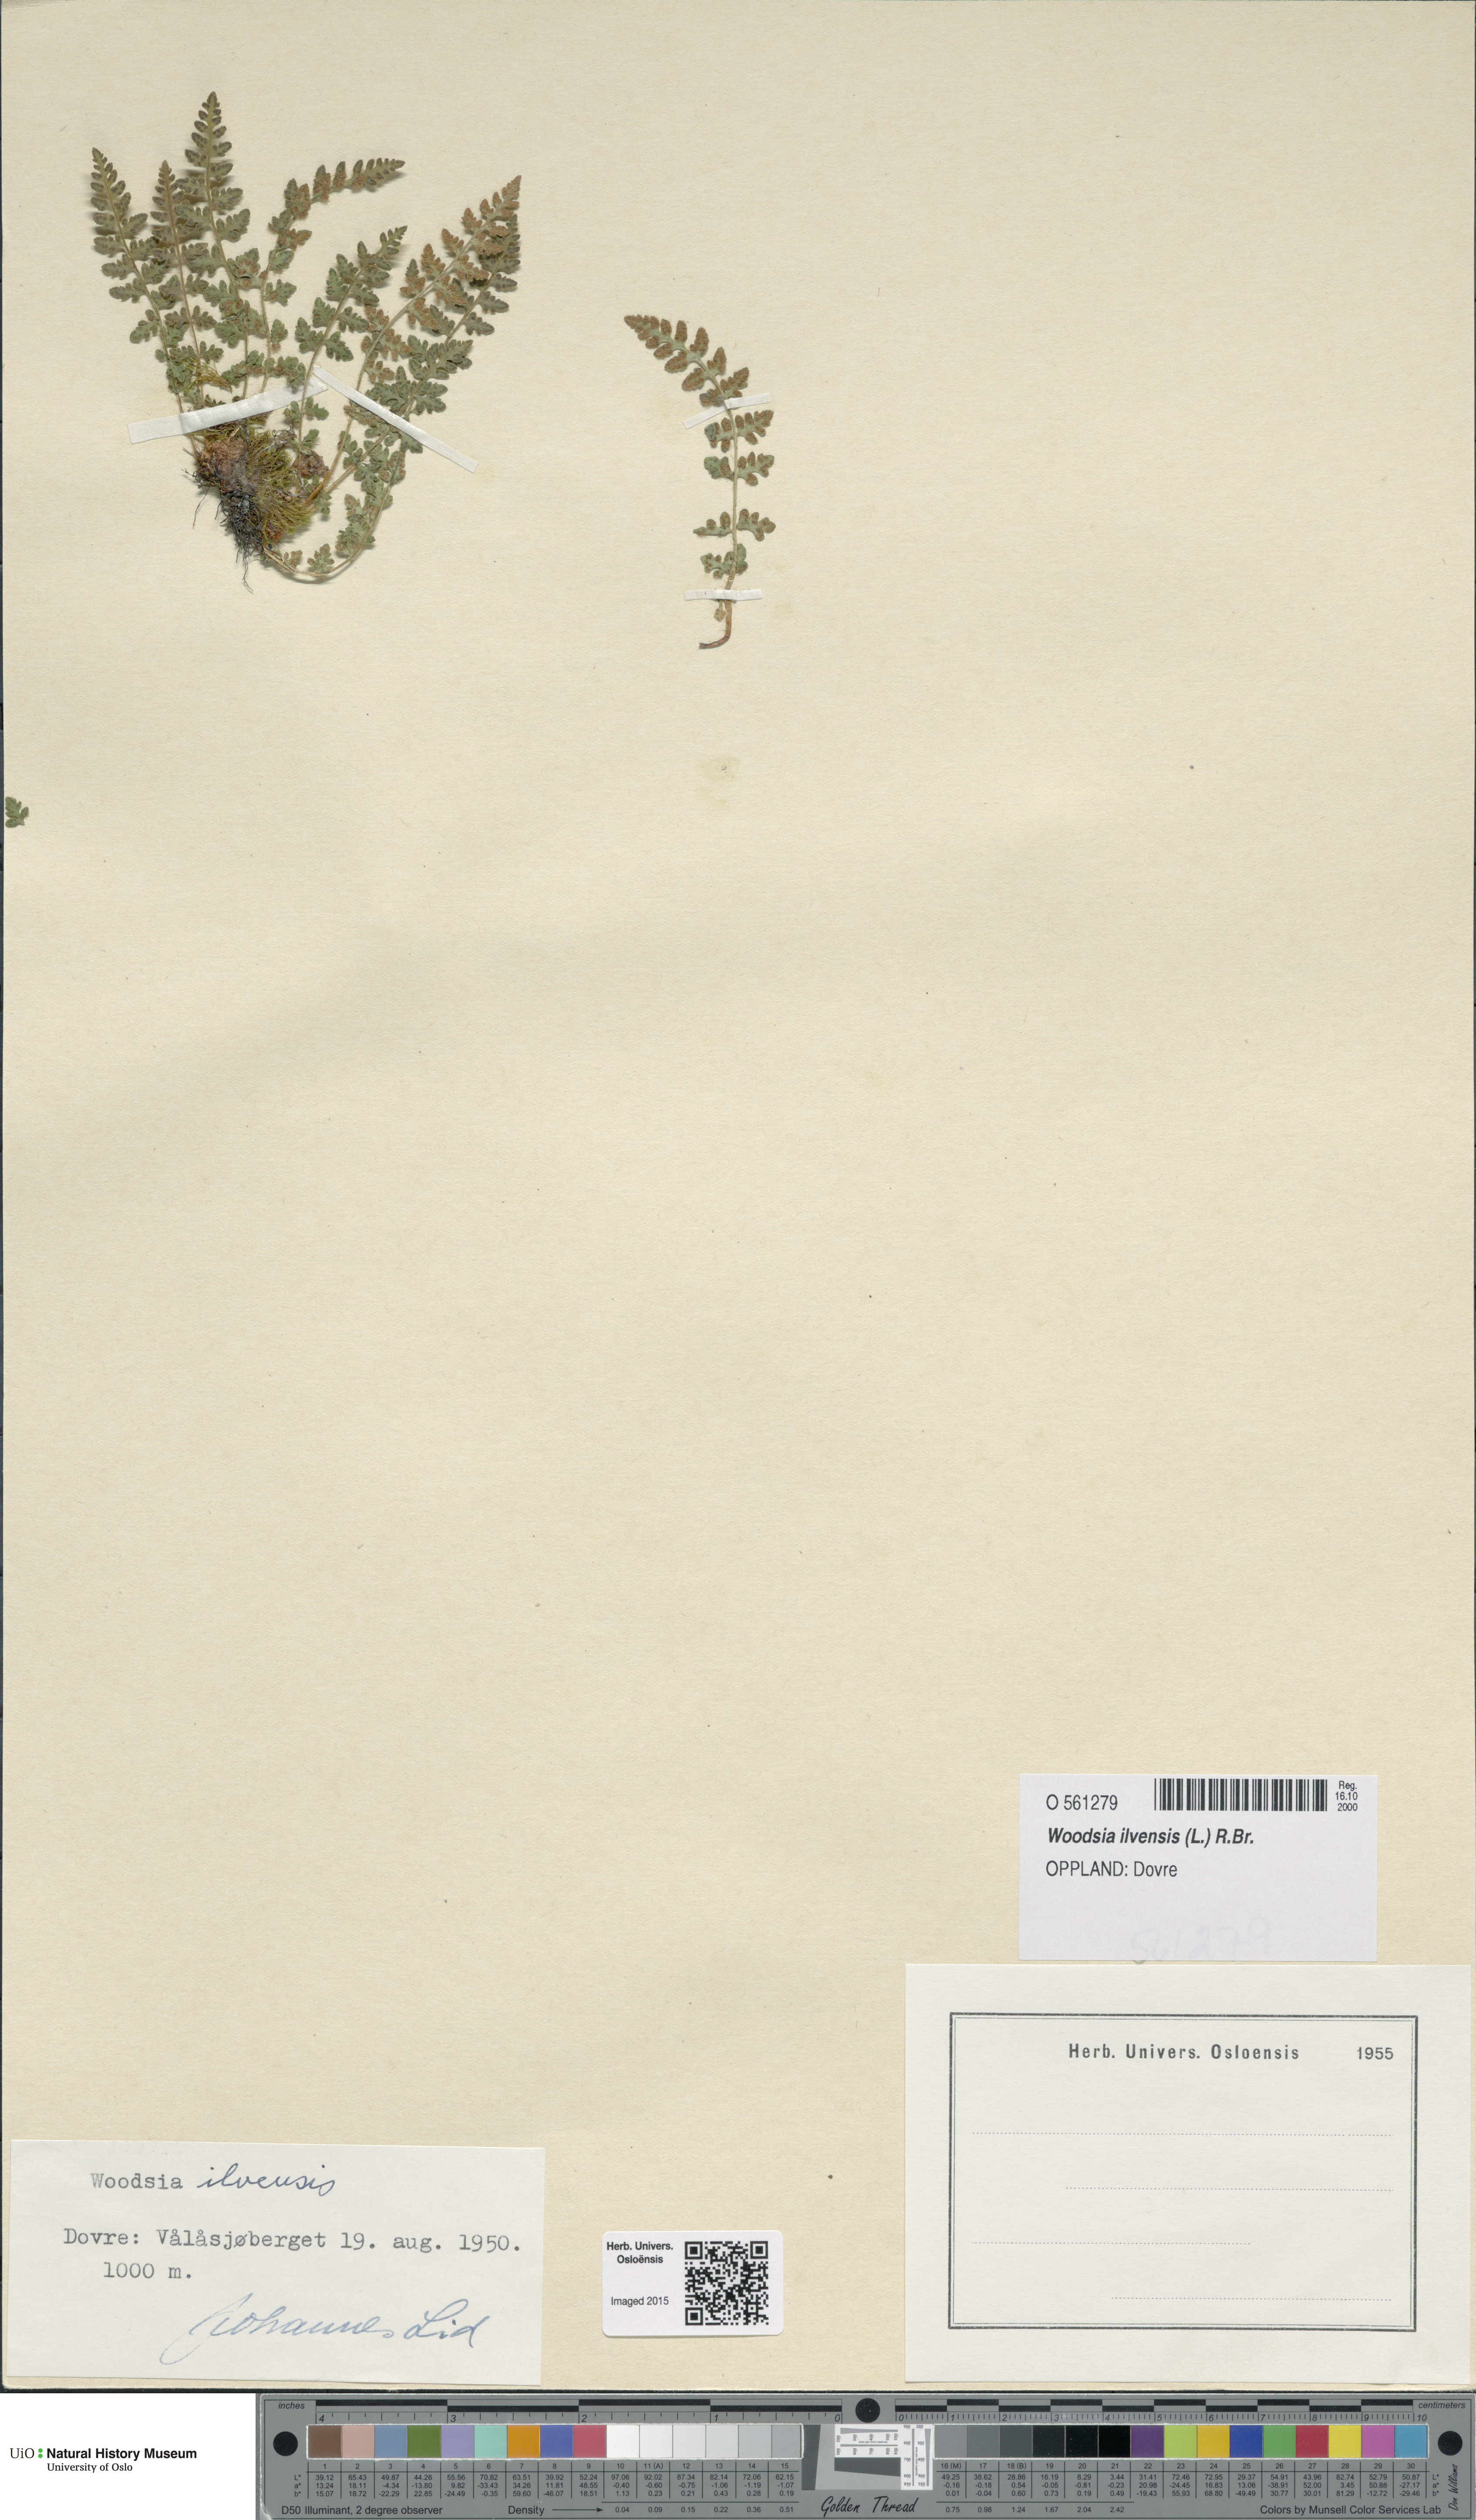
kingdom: Plantae
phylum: Tracheophyta
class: Polypodiopsida
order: Polypodiales
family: Woodsiaceae
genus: Woodsia
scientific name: Woodsia ilvensis
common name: Fragrant woodsia
